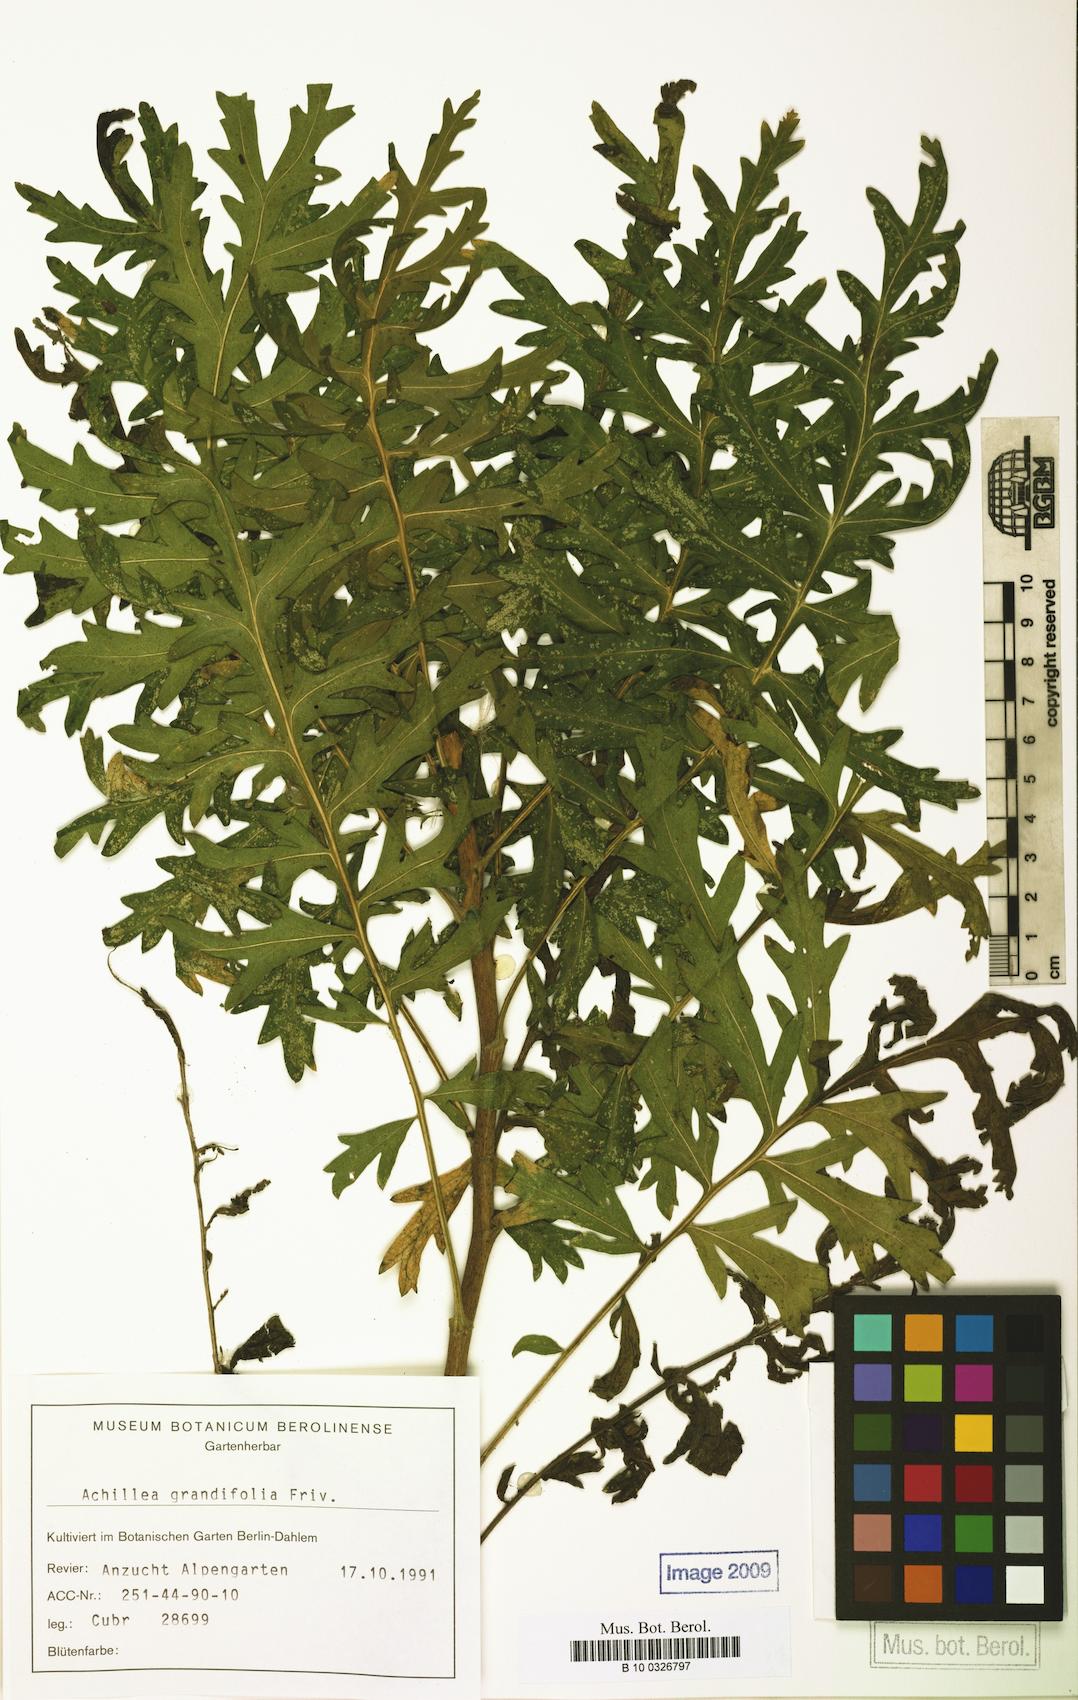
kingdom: Plantae
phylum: Tracheophyta
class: Magnoliopsida
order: Asterales
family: Asteraceae
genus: Achillea
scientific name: Achillea grandifolia
